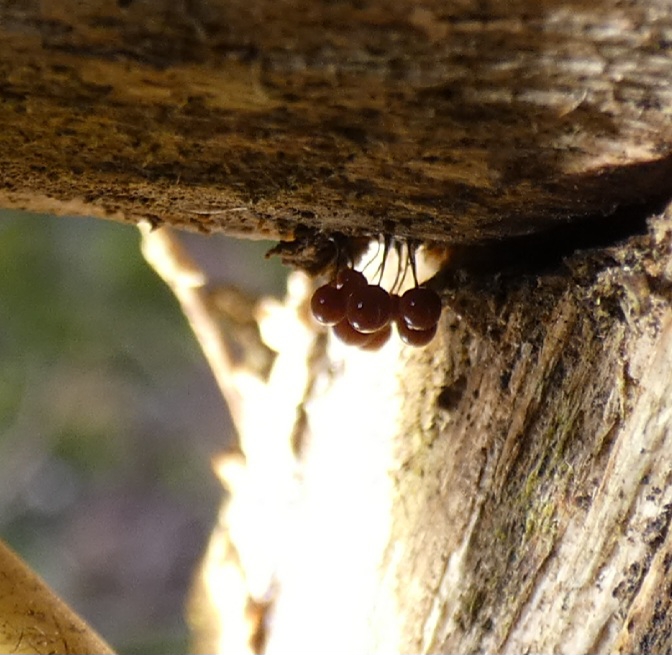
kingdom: Protozoa
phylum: Mycetozoa
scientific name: Mycetozoa
